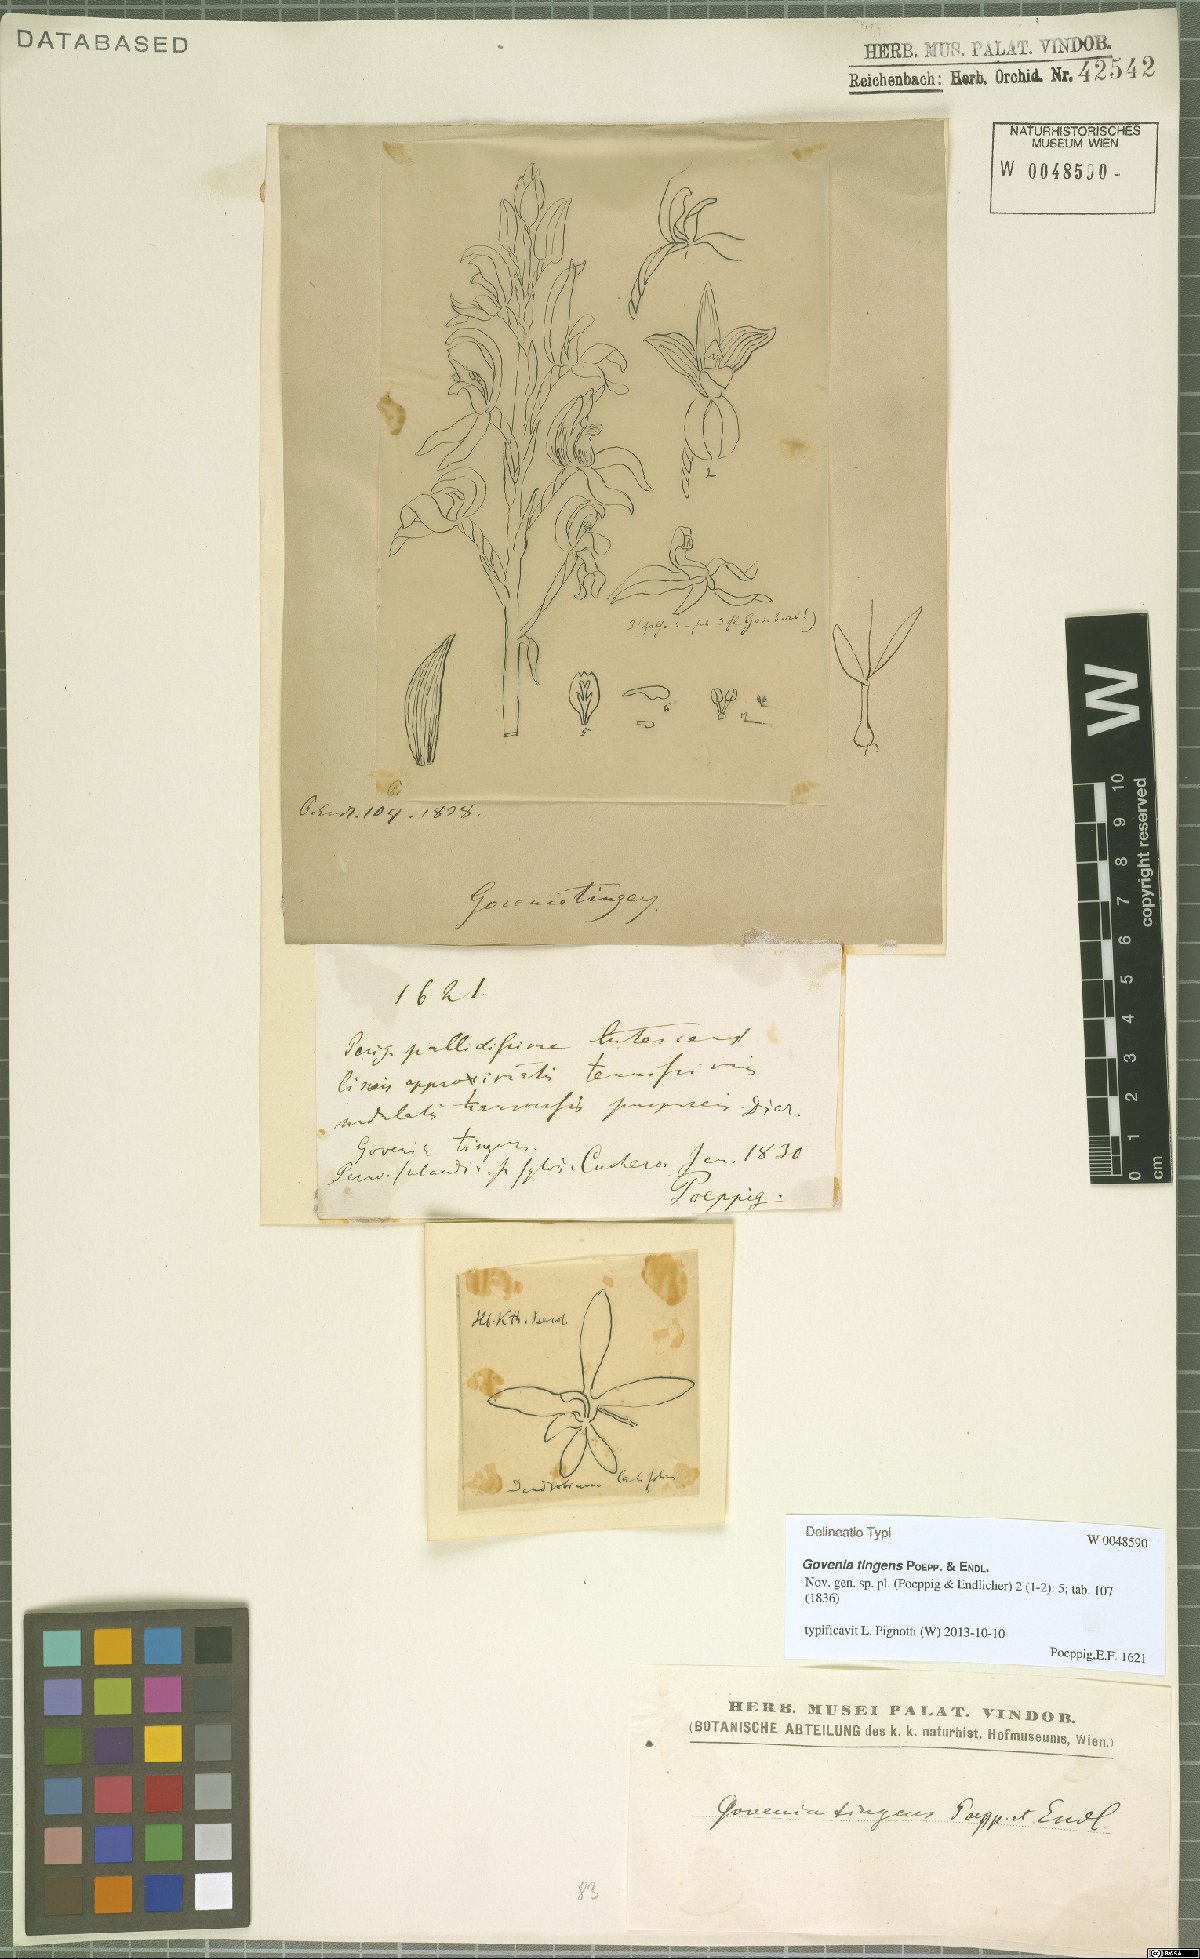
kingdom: Plantae
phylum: Tracheophyta
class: Liliopsida
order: Asparagales
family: Orchidaceae
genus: Govenia
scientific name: Govenia tingens
